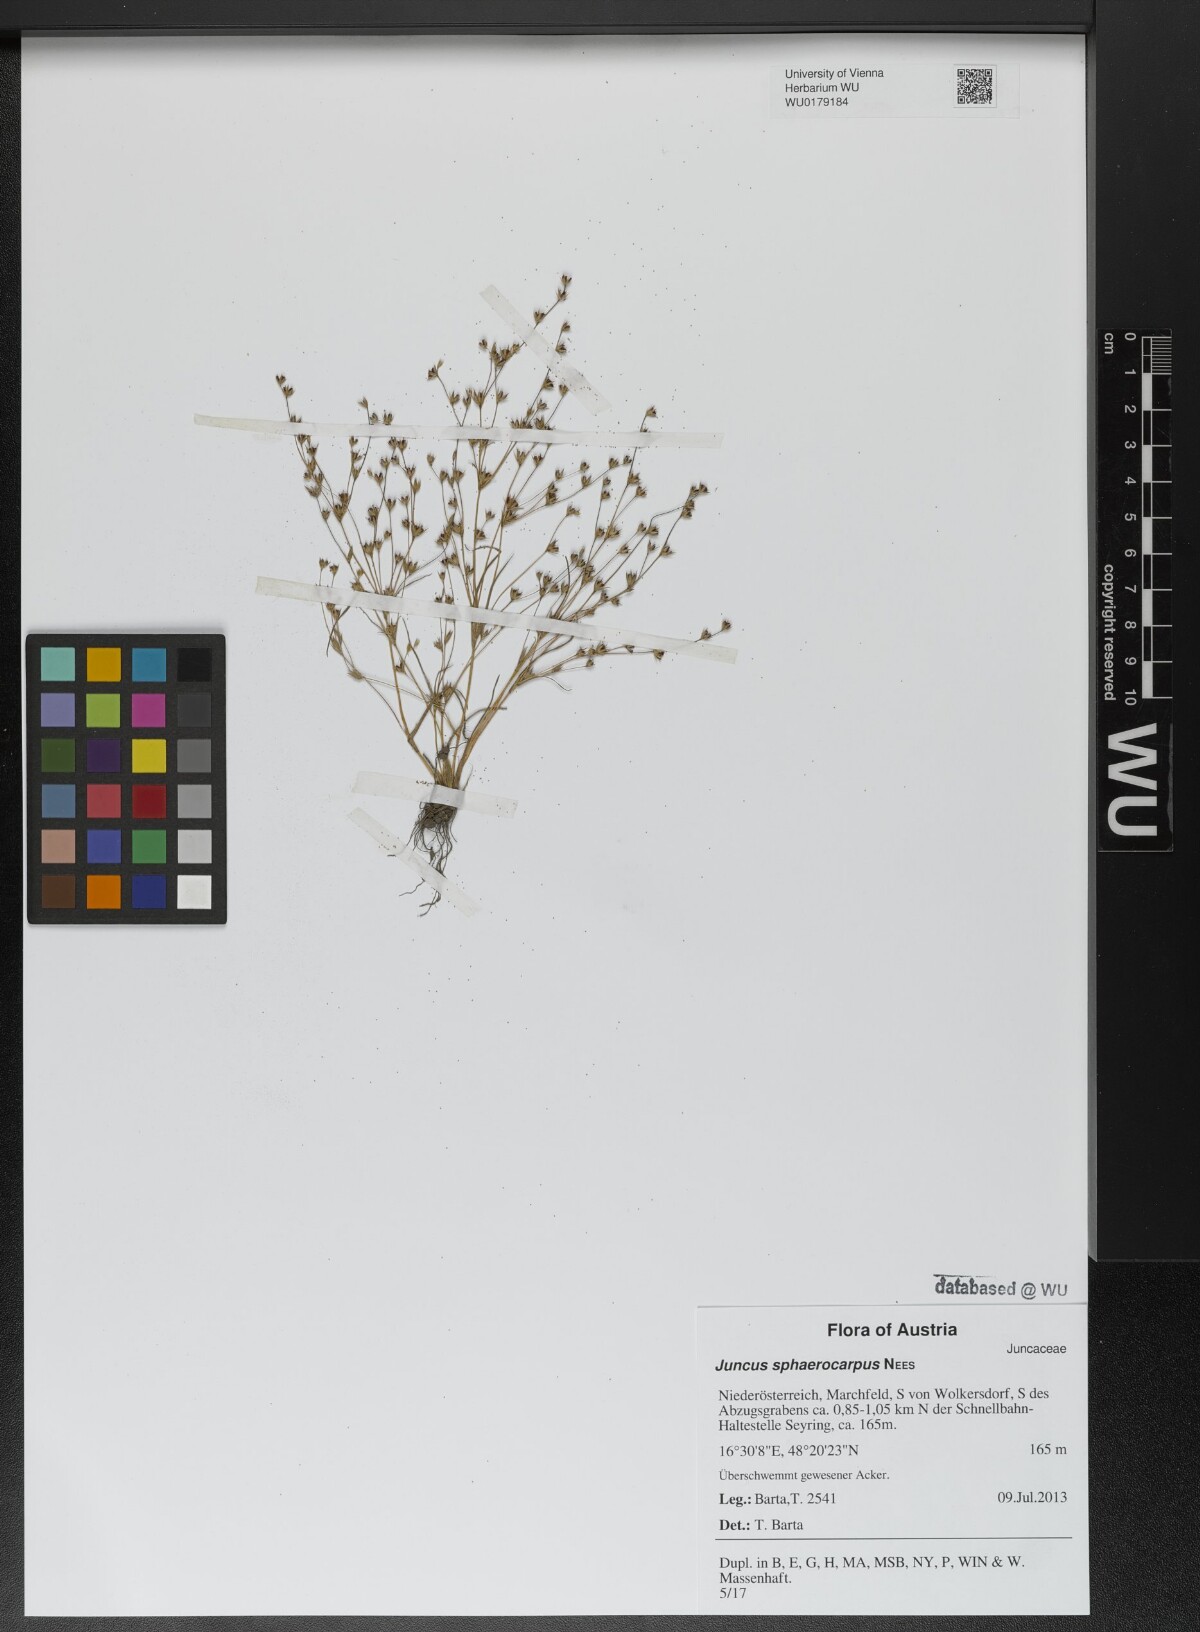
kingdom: Plantae
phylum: Tracheophyta
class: Liliopsida
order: Poales
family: Juncaceae
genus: Juncus
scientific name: Juncus sphaerocarpus
